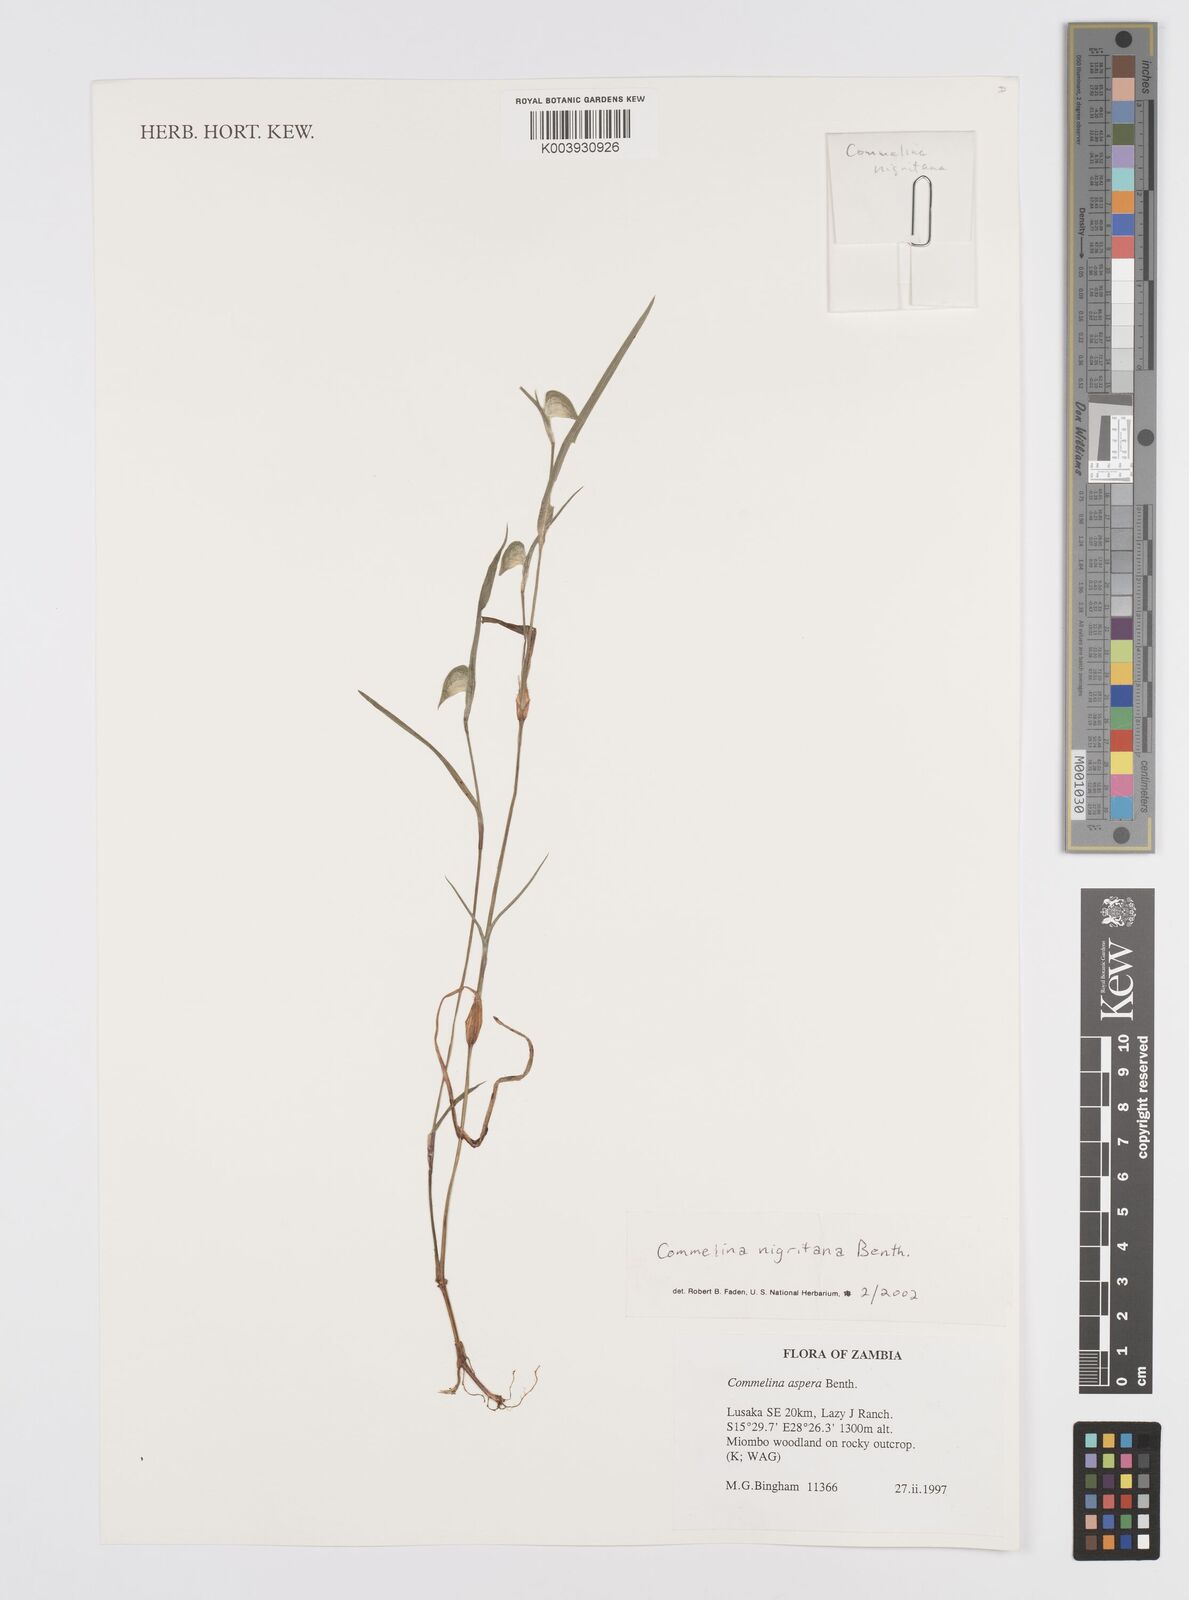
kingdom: Plantae
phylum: Tracheophyta
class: Liliopsida
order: Commelinales
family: Commelinaceae
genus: Commelina
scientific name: Commelina nigritana
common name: African dayflower
